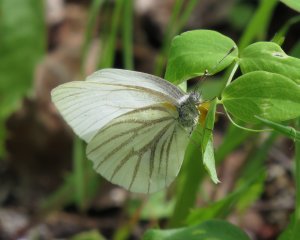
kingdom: Animalia
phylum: Arthropoda
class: Insecta
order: Lepidoptera
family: Pieridae
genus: Pieris
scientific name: Pieris oleracea
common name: Mustard White
